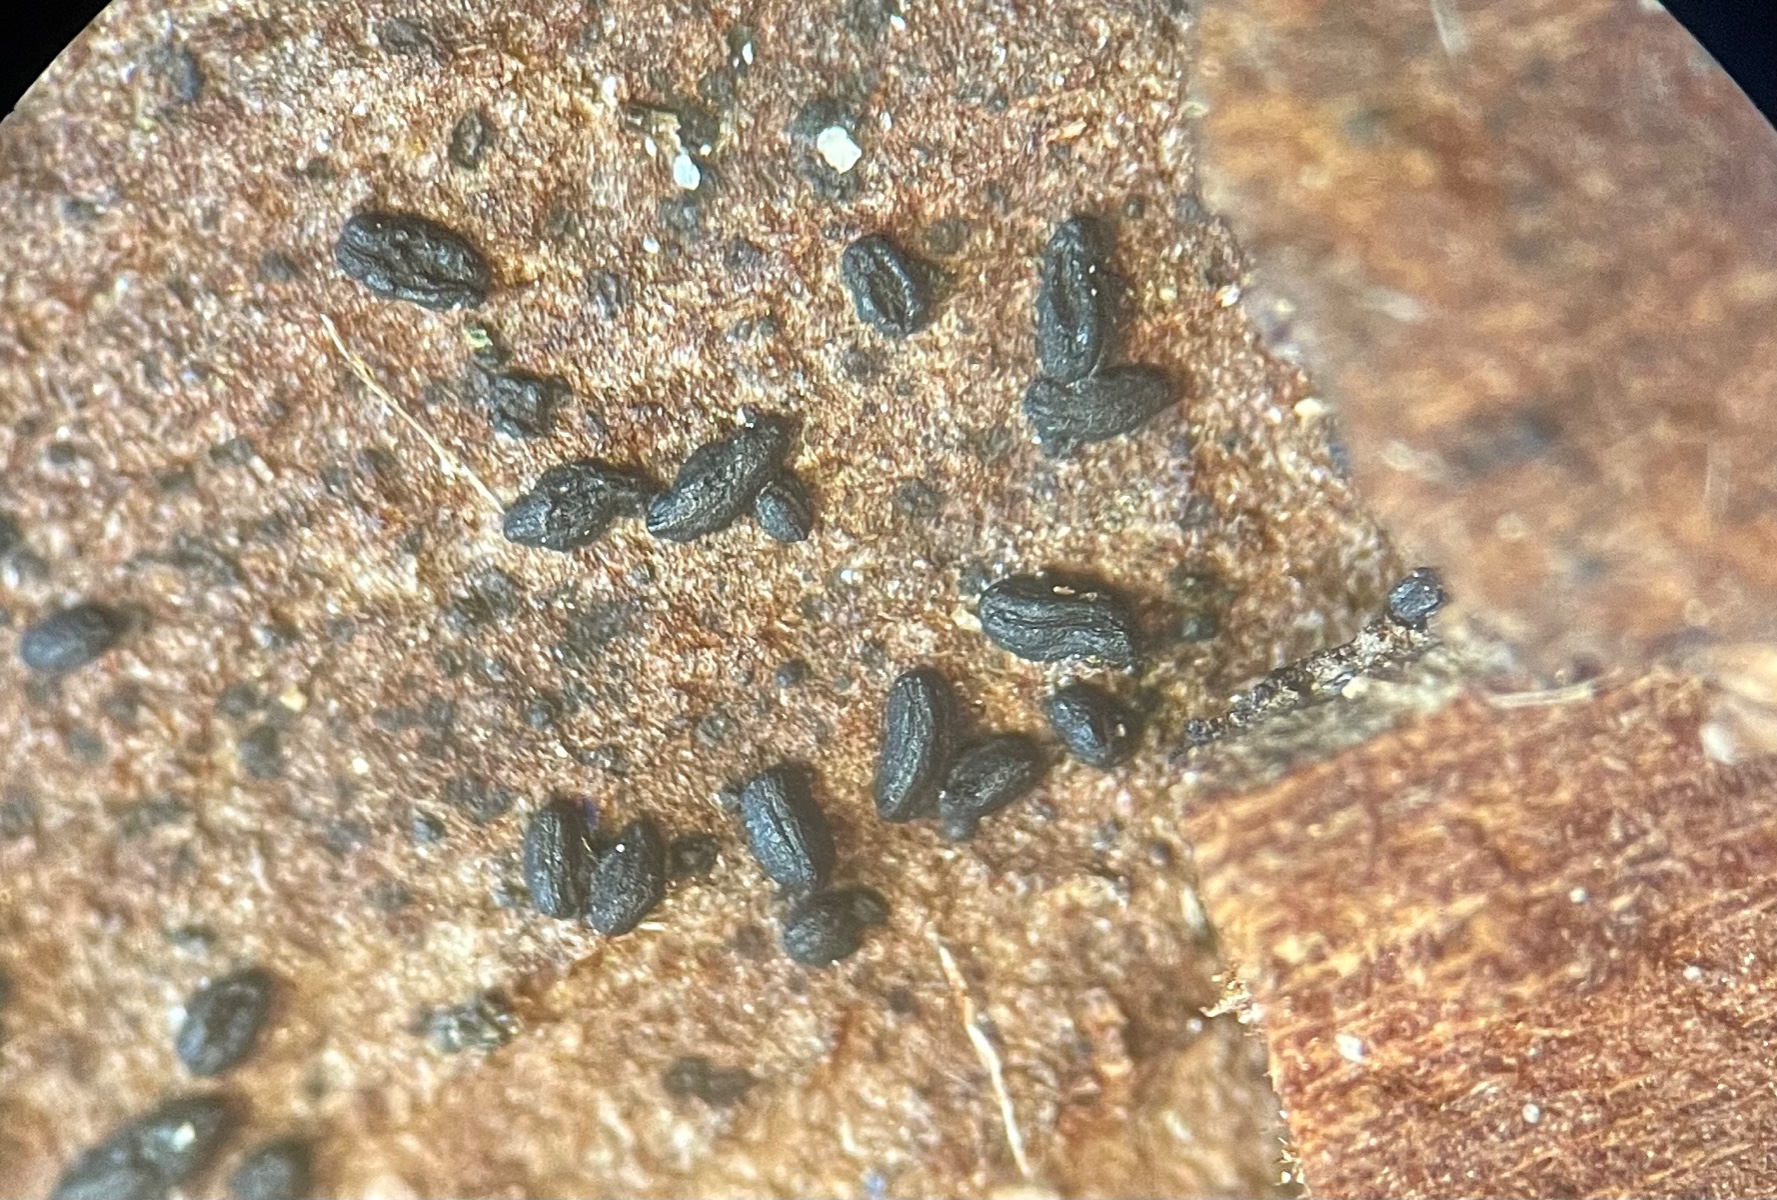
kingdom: Fungi
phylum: Ascomycota
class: Dothideomycetes
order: Hysteriales
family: Hysteriaceae
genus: Hysterium
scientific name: Hysterium acuminatum
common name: almindelig kulmund
